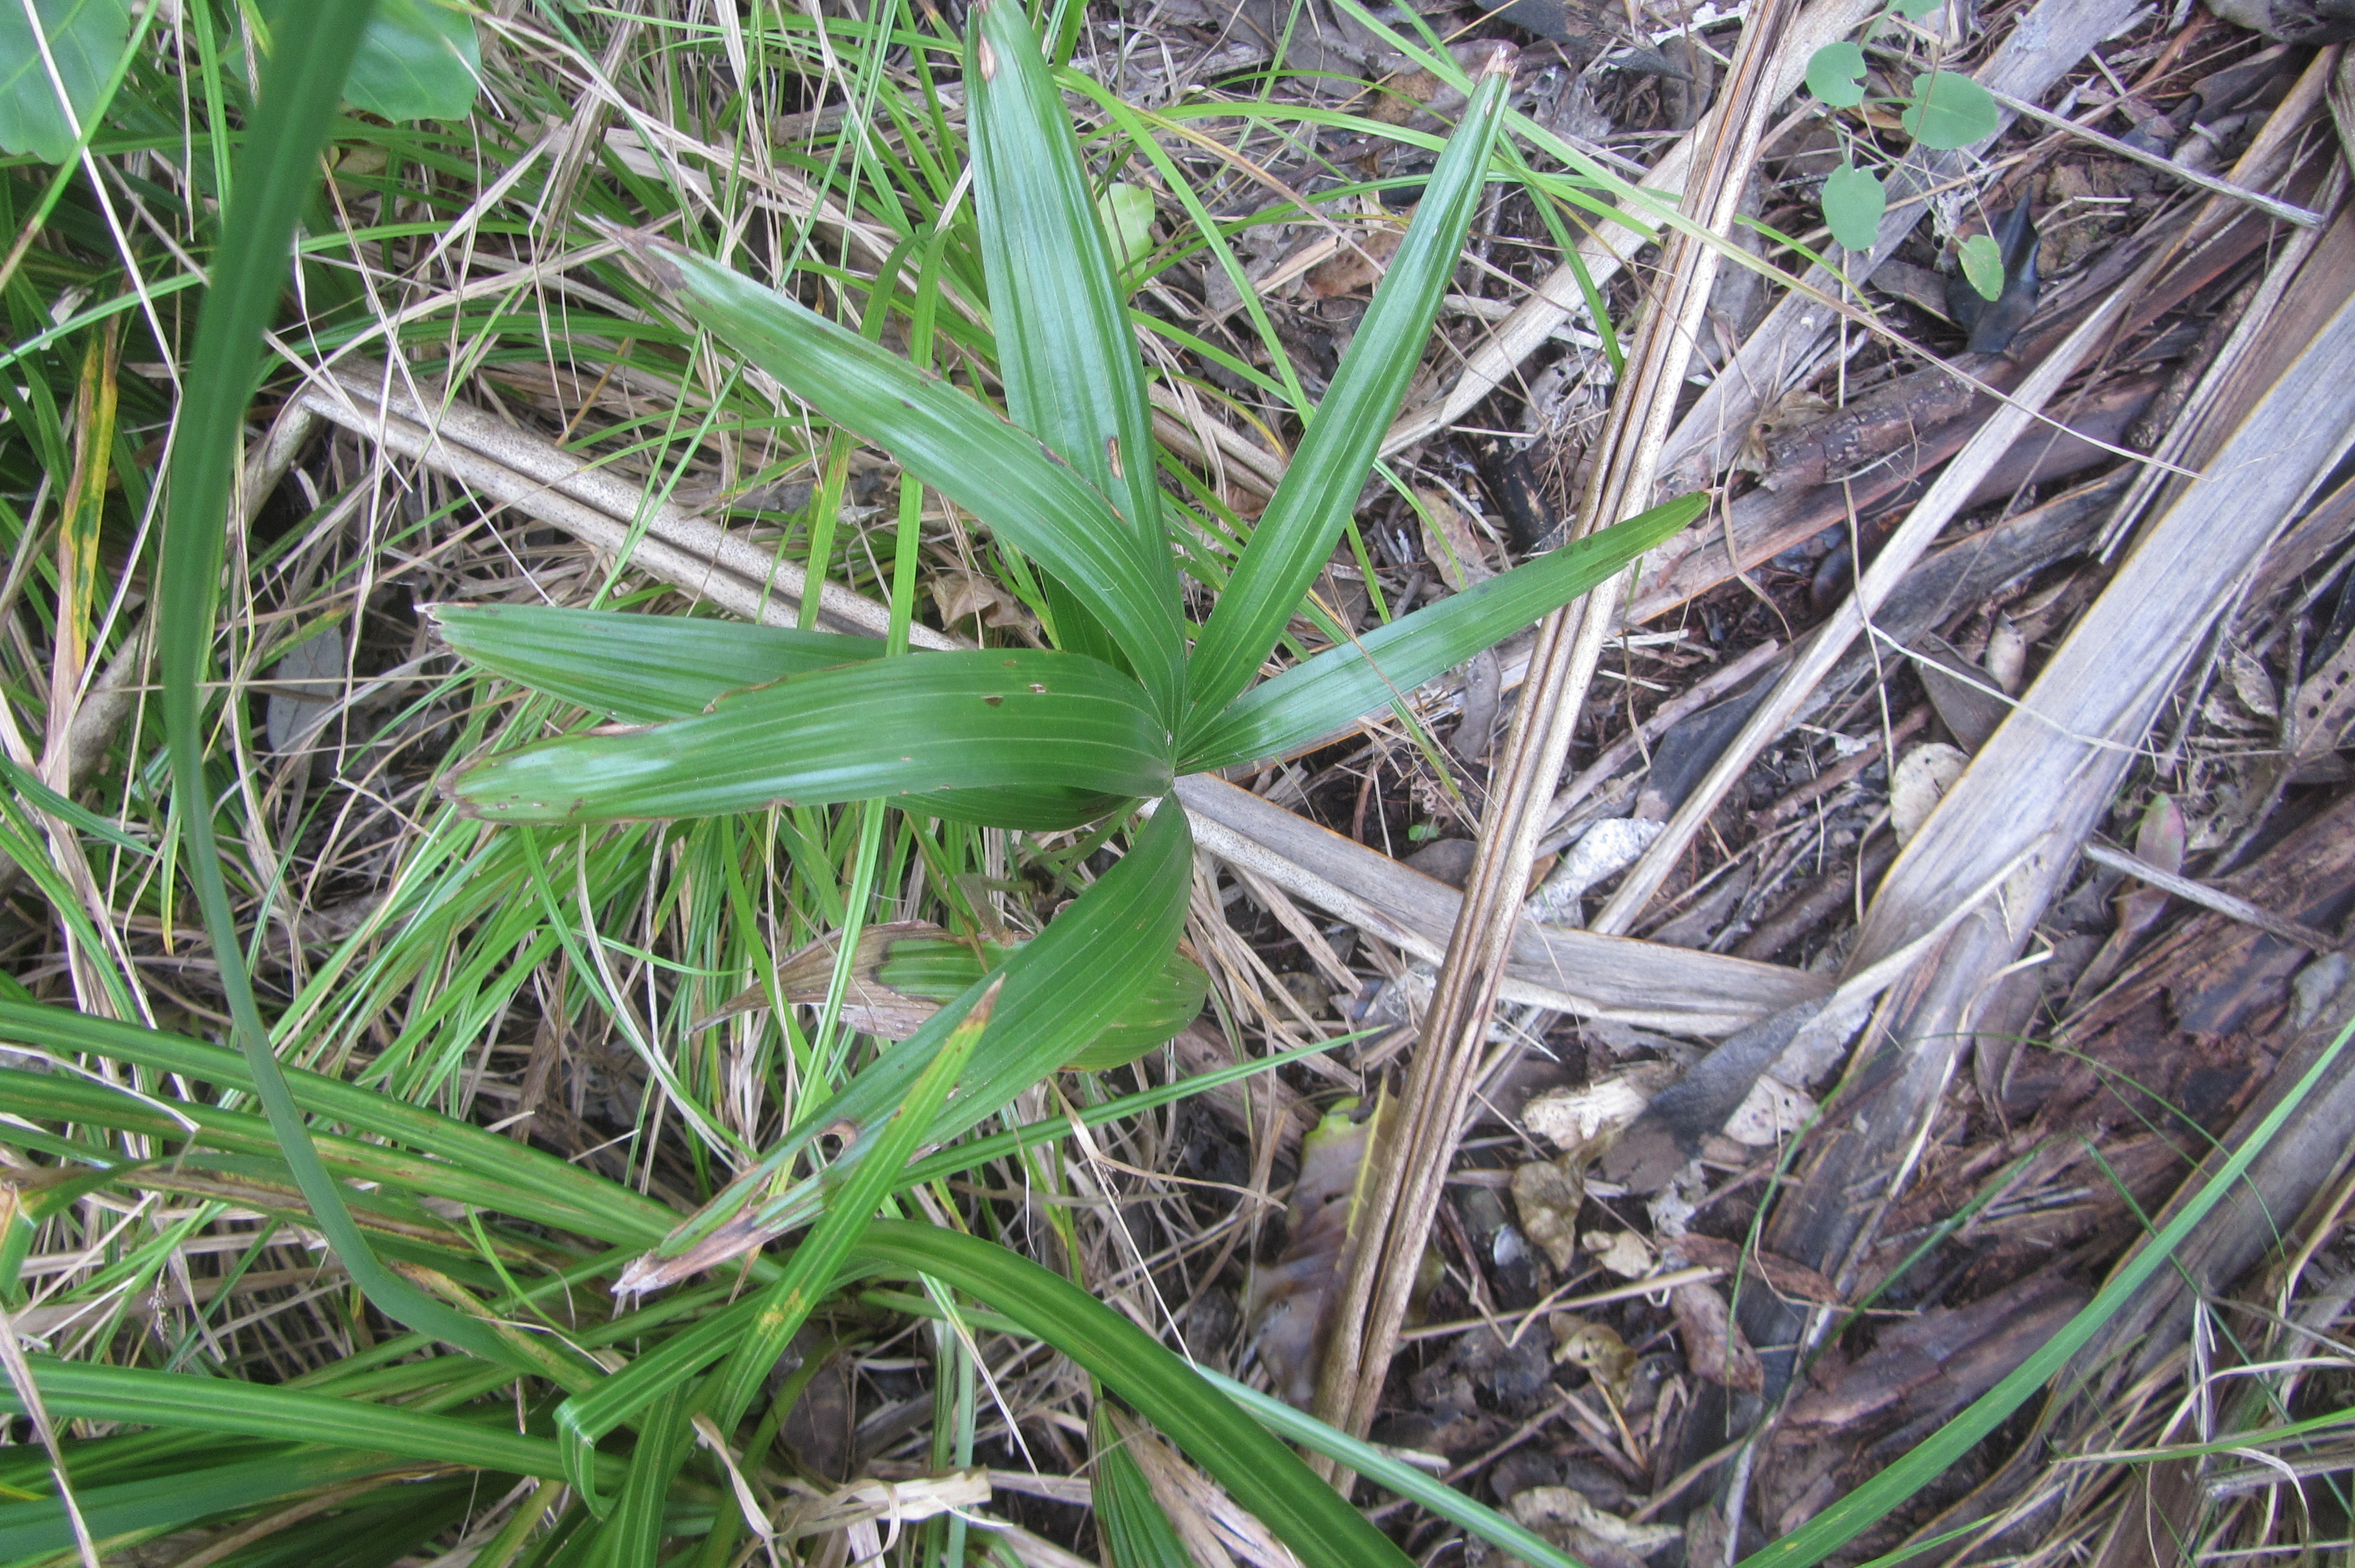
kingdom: Plantae
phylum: Tracheophyta
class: Liliopsida
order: Arecales
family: Arecaceae
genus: Washingtonia
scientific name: Washingtonia robusta
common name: Mexican fan palm
